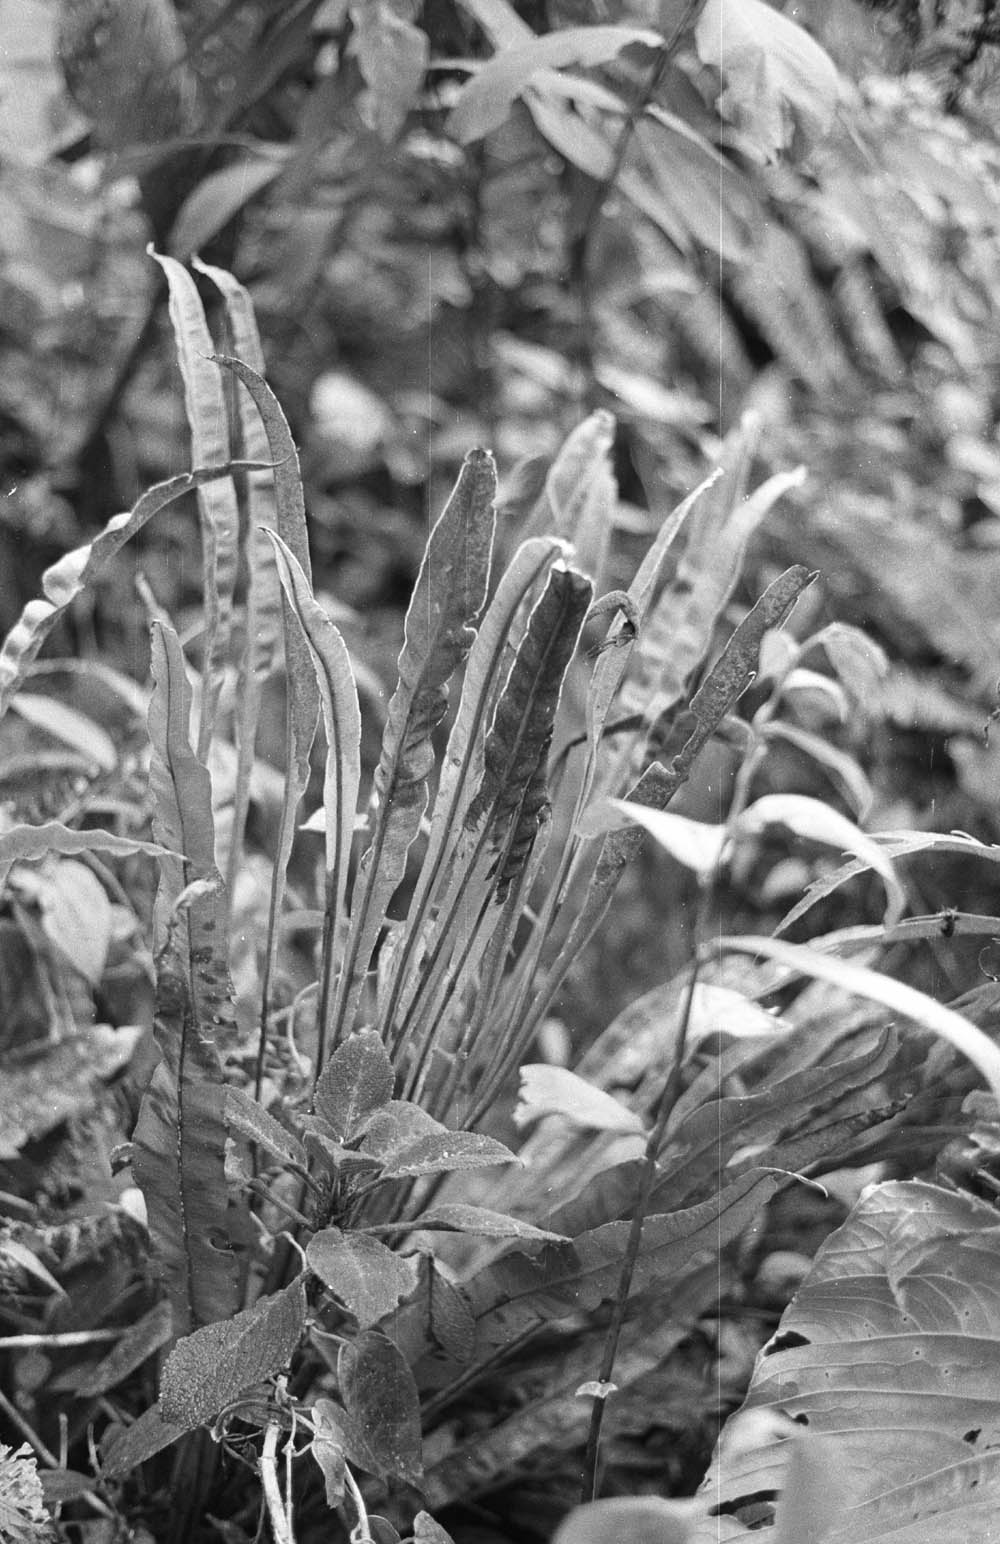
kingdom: Plantae
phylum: Tracheophyta
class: Polypodiopsida
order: Polypodiales
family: Dryopteridaceae
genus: Elaphoglossum
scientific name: Elaphoglossum latifolium
